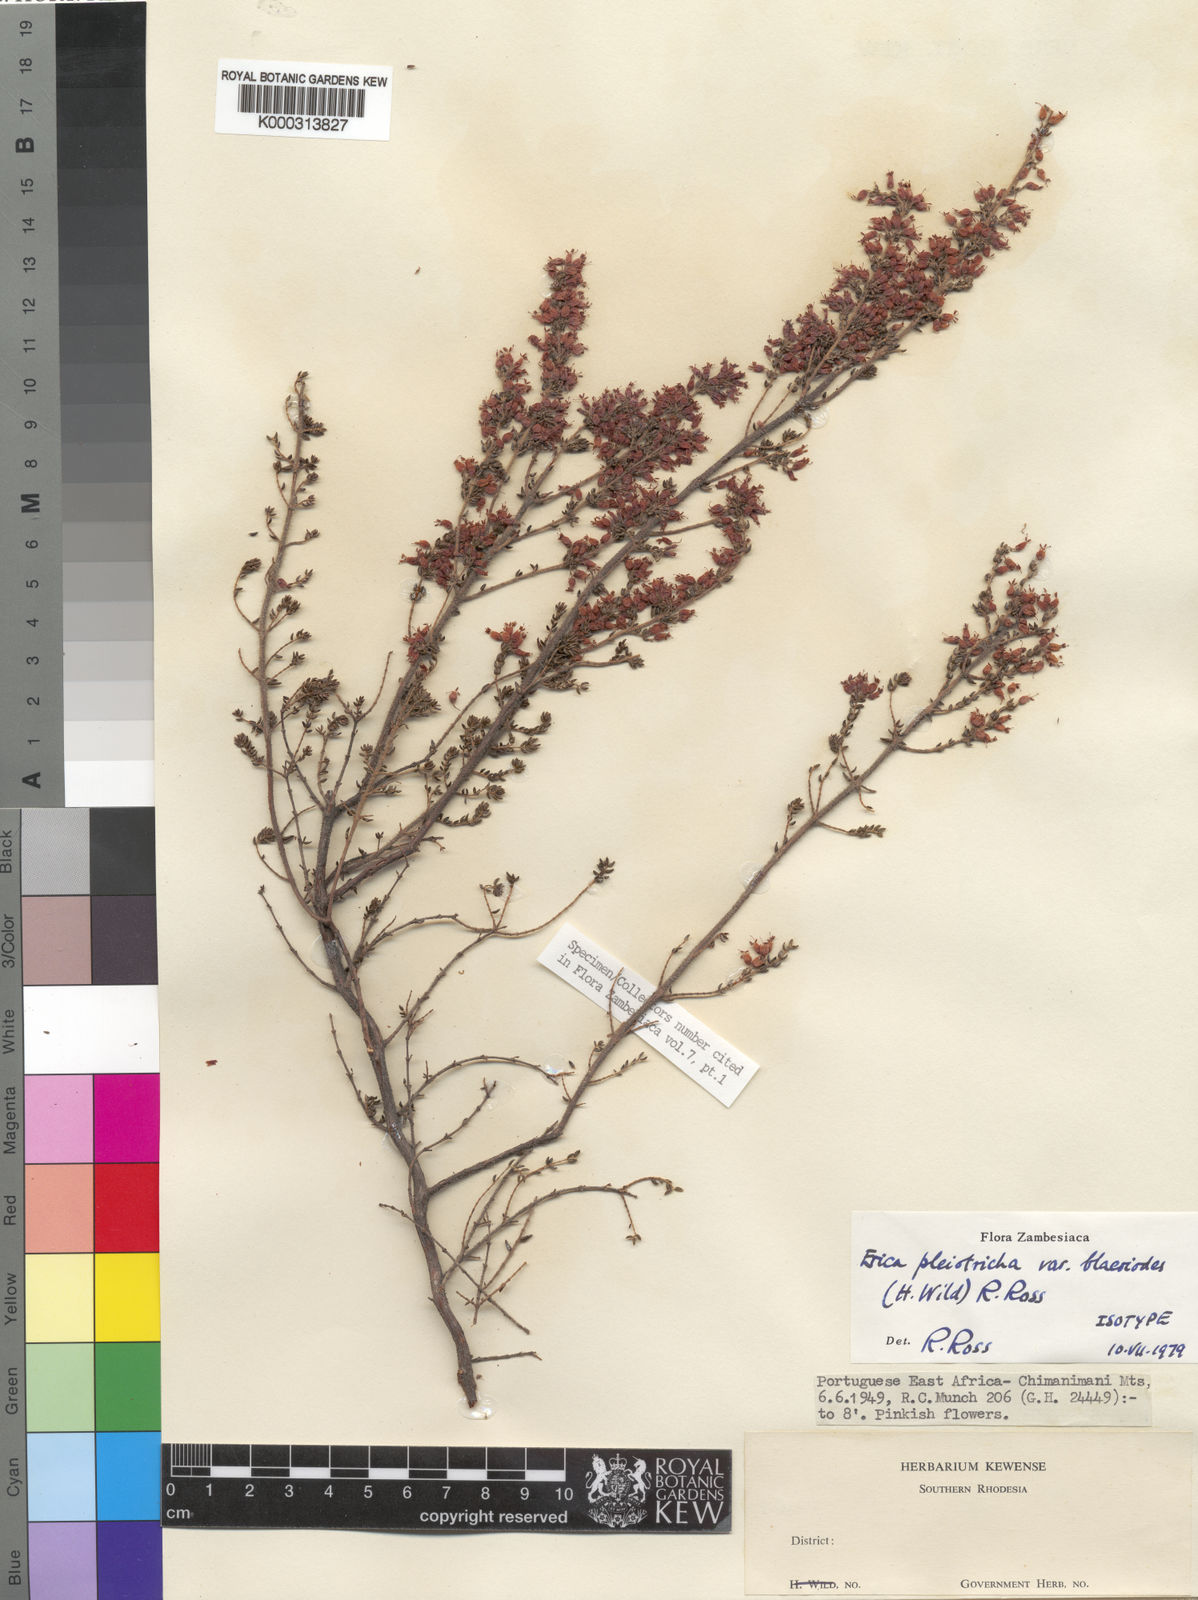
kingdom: Plantae
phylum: Tracheophyta
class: Magnoliopsida
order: Ericales
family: Ericaceae
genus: Erica
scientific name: Erica pleiotricha
